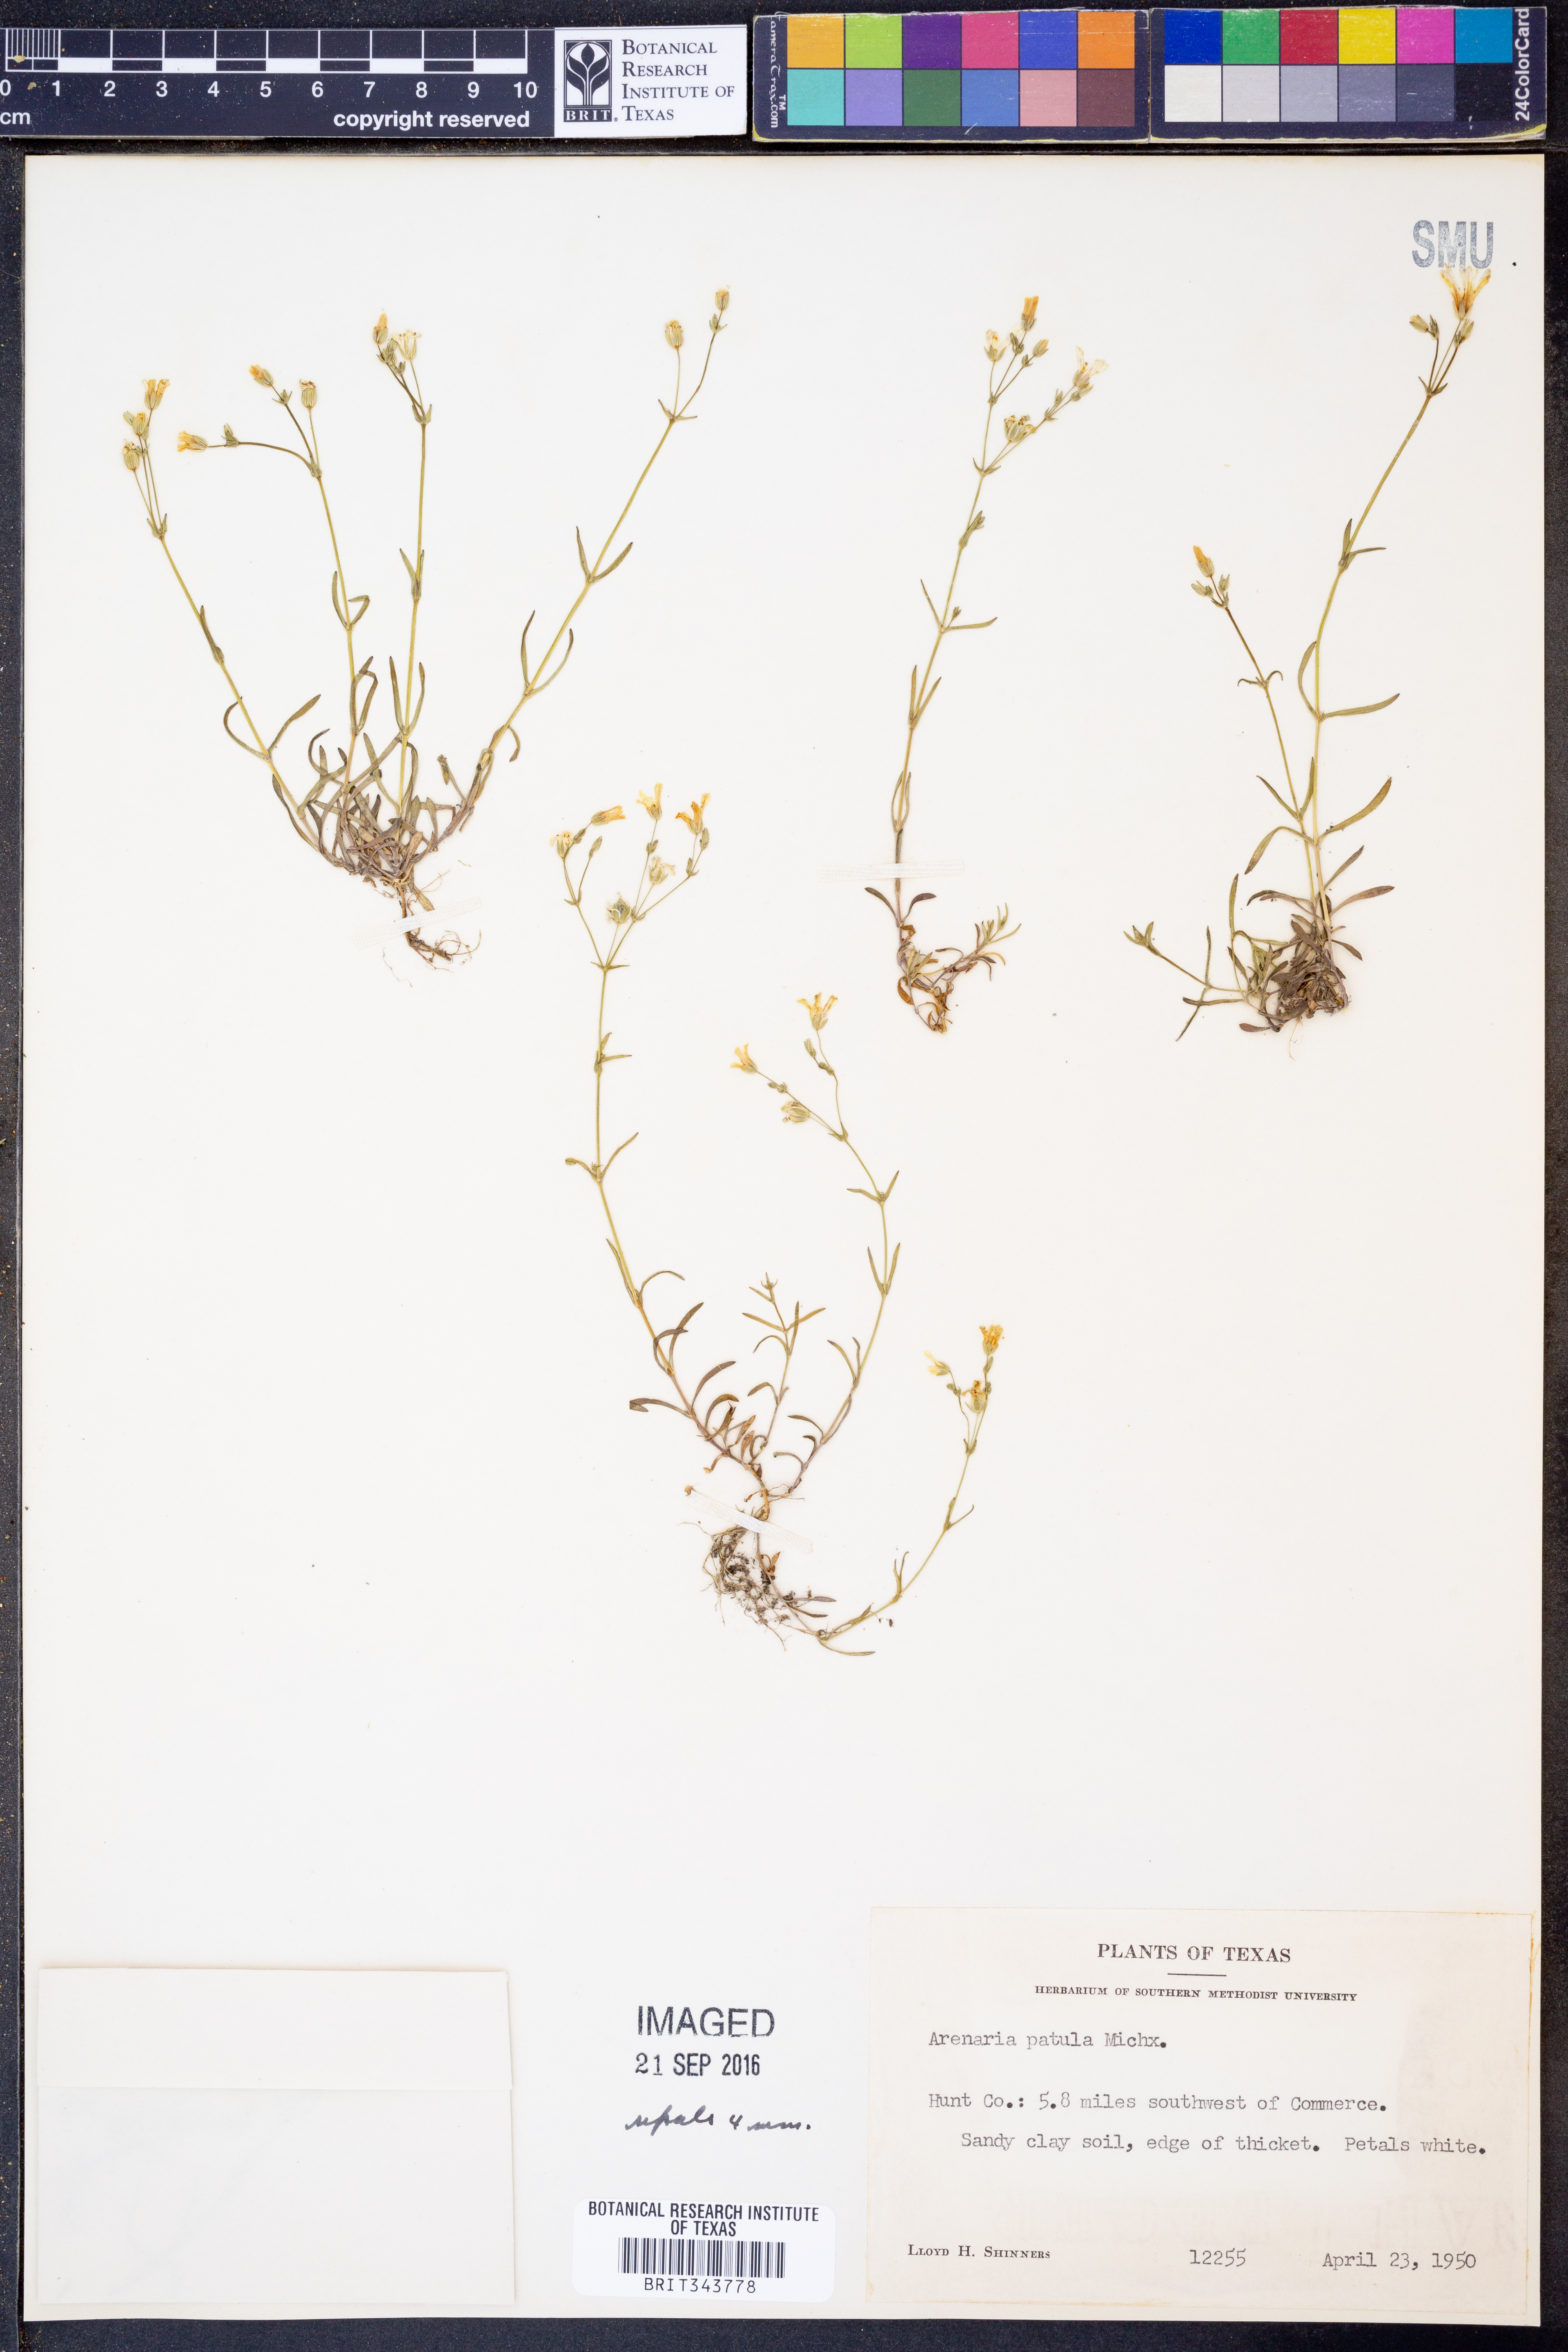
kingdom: Plantae
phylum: Tracheophyta
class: Magnoliopsida
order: Caryophyllales
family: Caryophyllaceae
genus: Mononeuria
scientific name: Mononeuria patula
